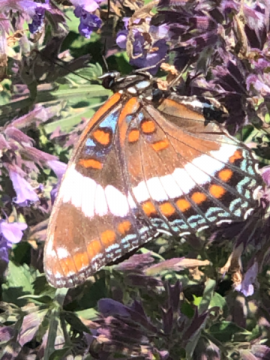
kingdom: Animalia
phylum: Arthropoda
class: Insecta
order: Lepidoptera
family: Nymphalidae
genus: Limenitis
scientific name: Limenitis arthemis
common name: Red-spotted Admiral
